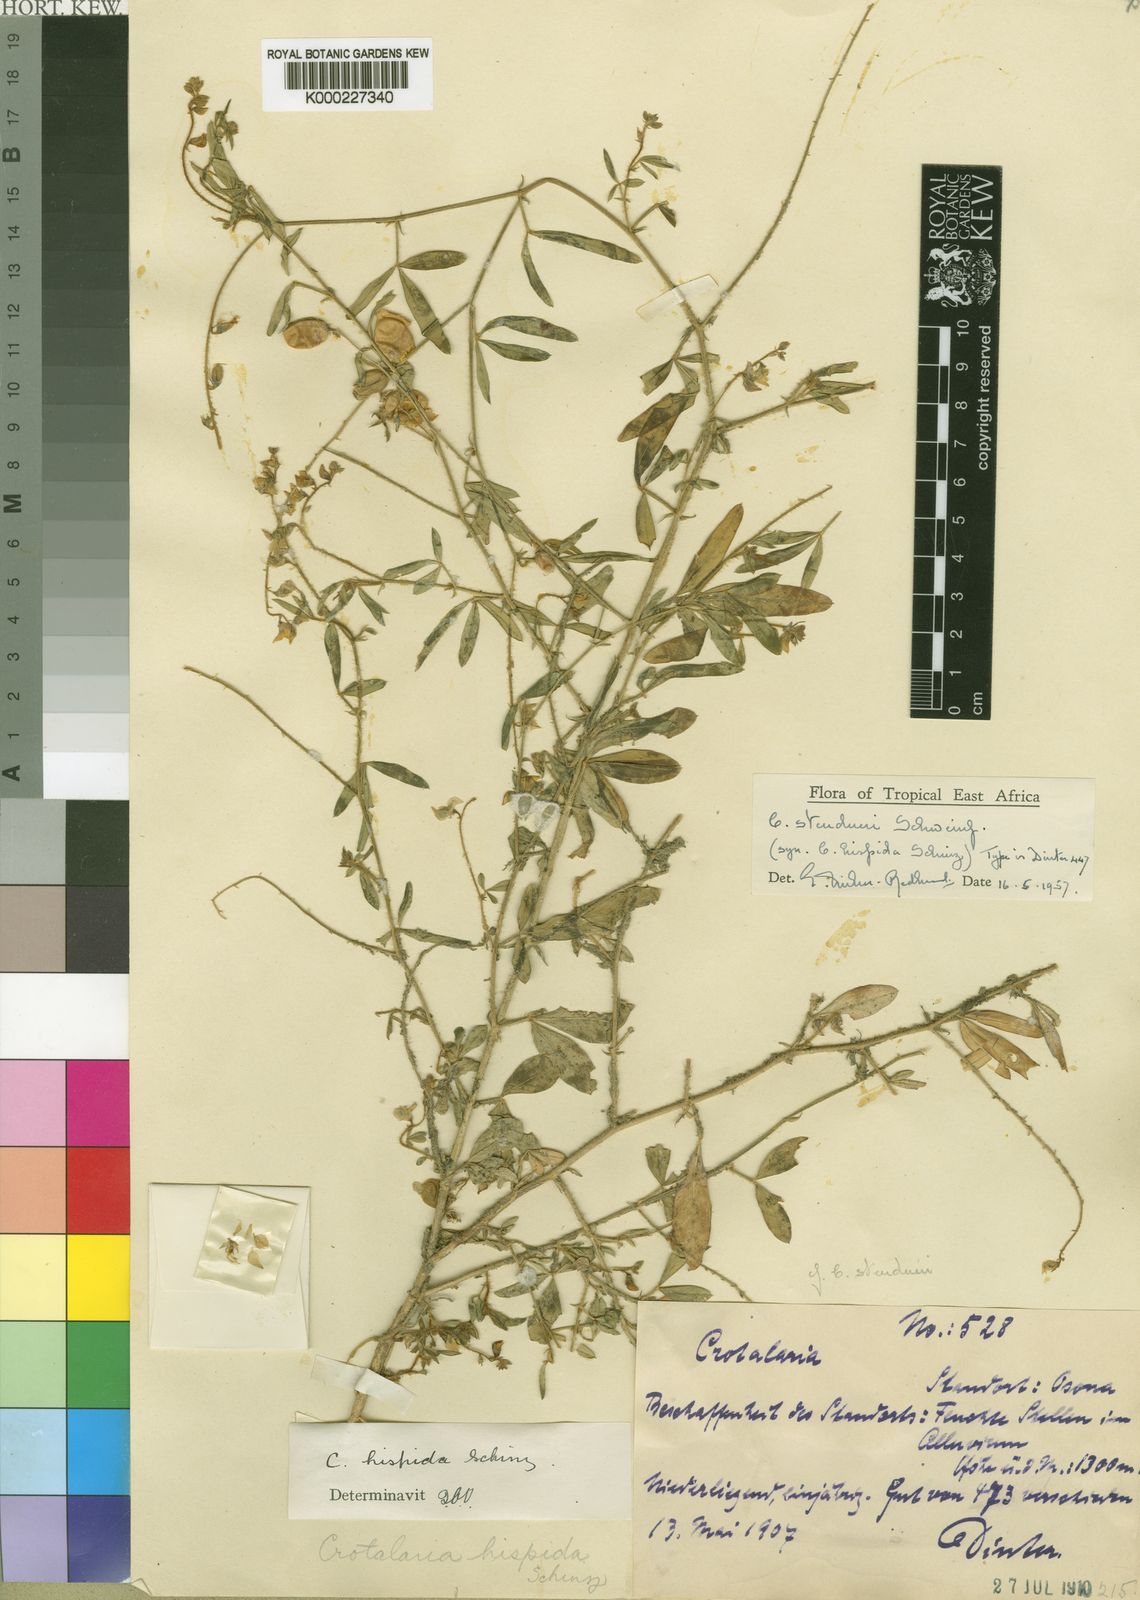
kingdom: Plantae
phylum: Tracheophyta
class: Magnoliopsida
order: Fabales
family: Fabaceae
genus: Crotalaria
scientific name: Crotalaria steudneri
